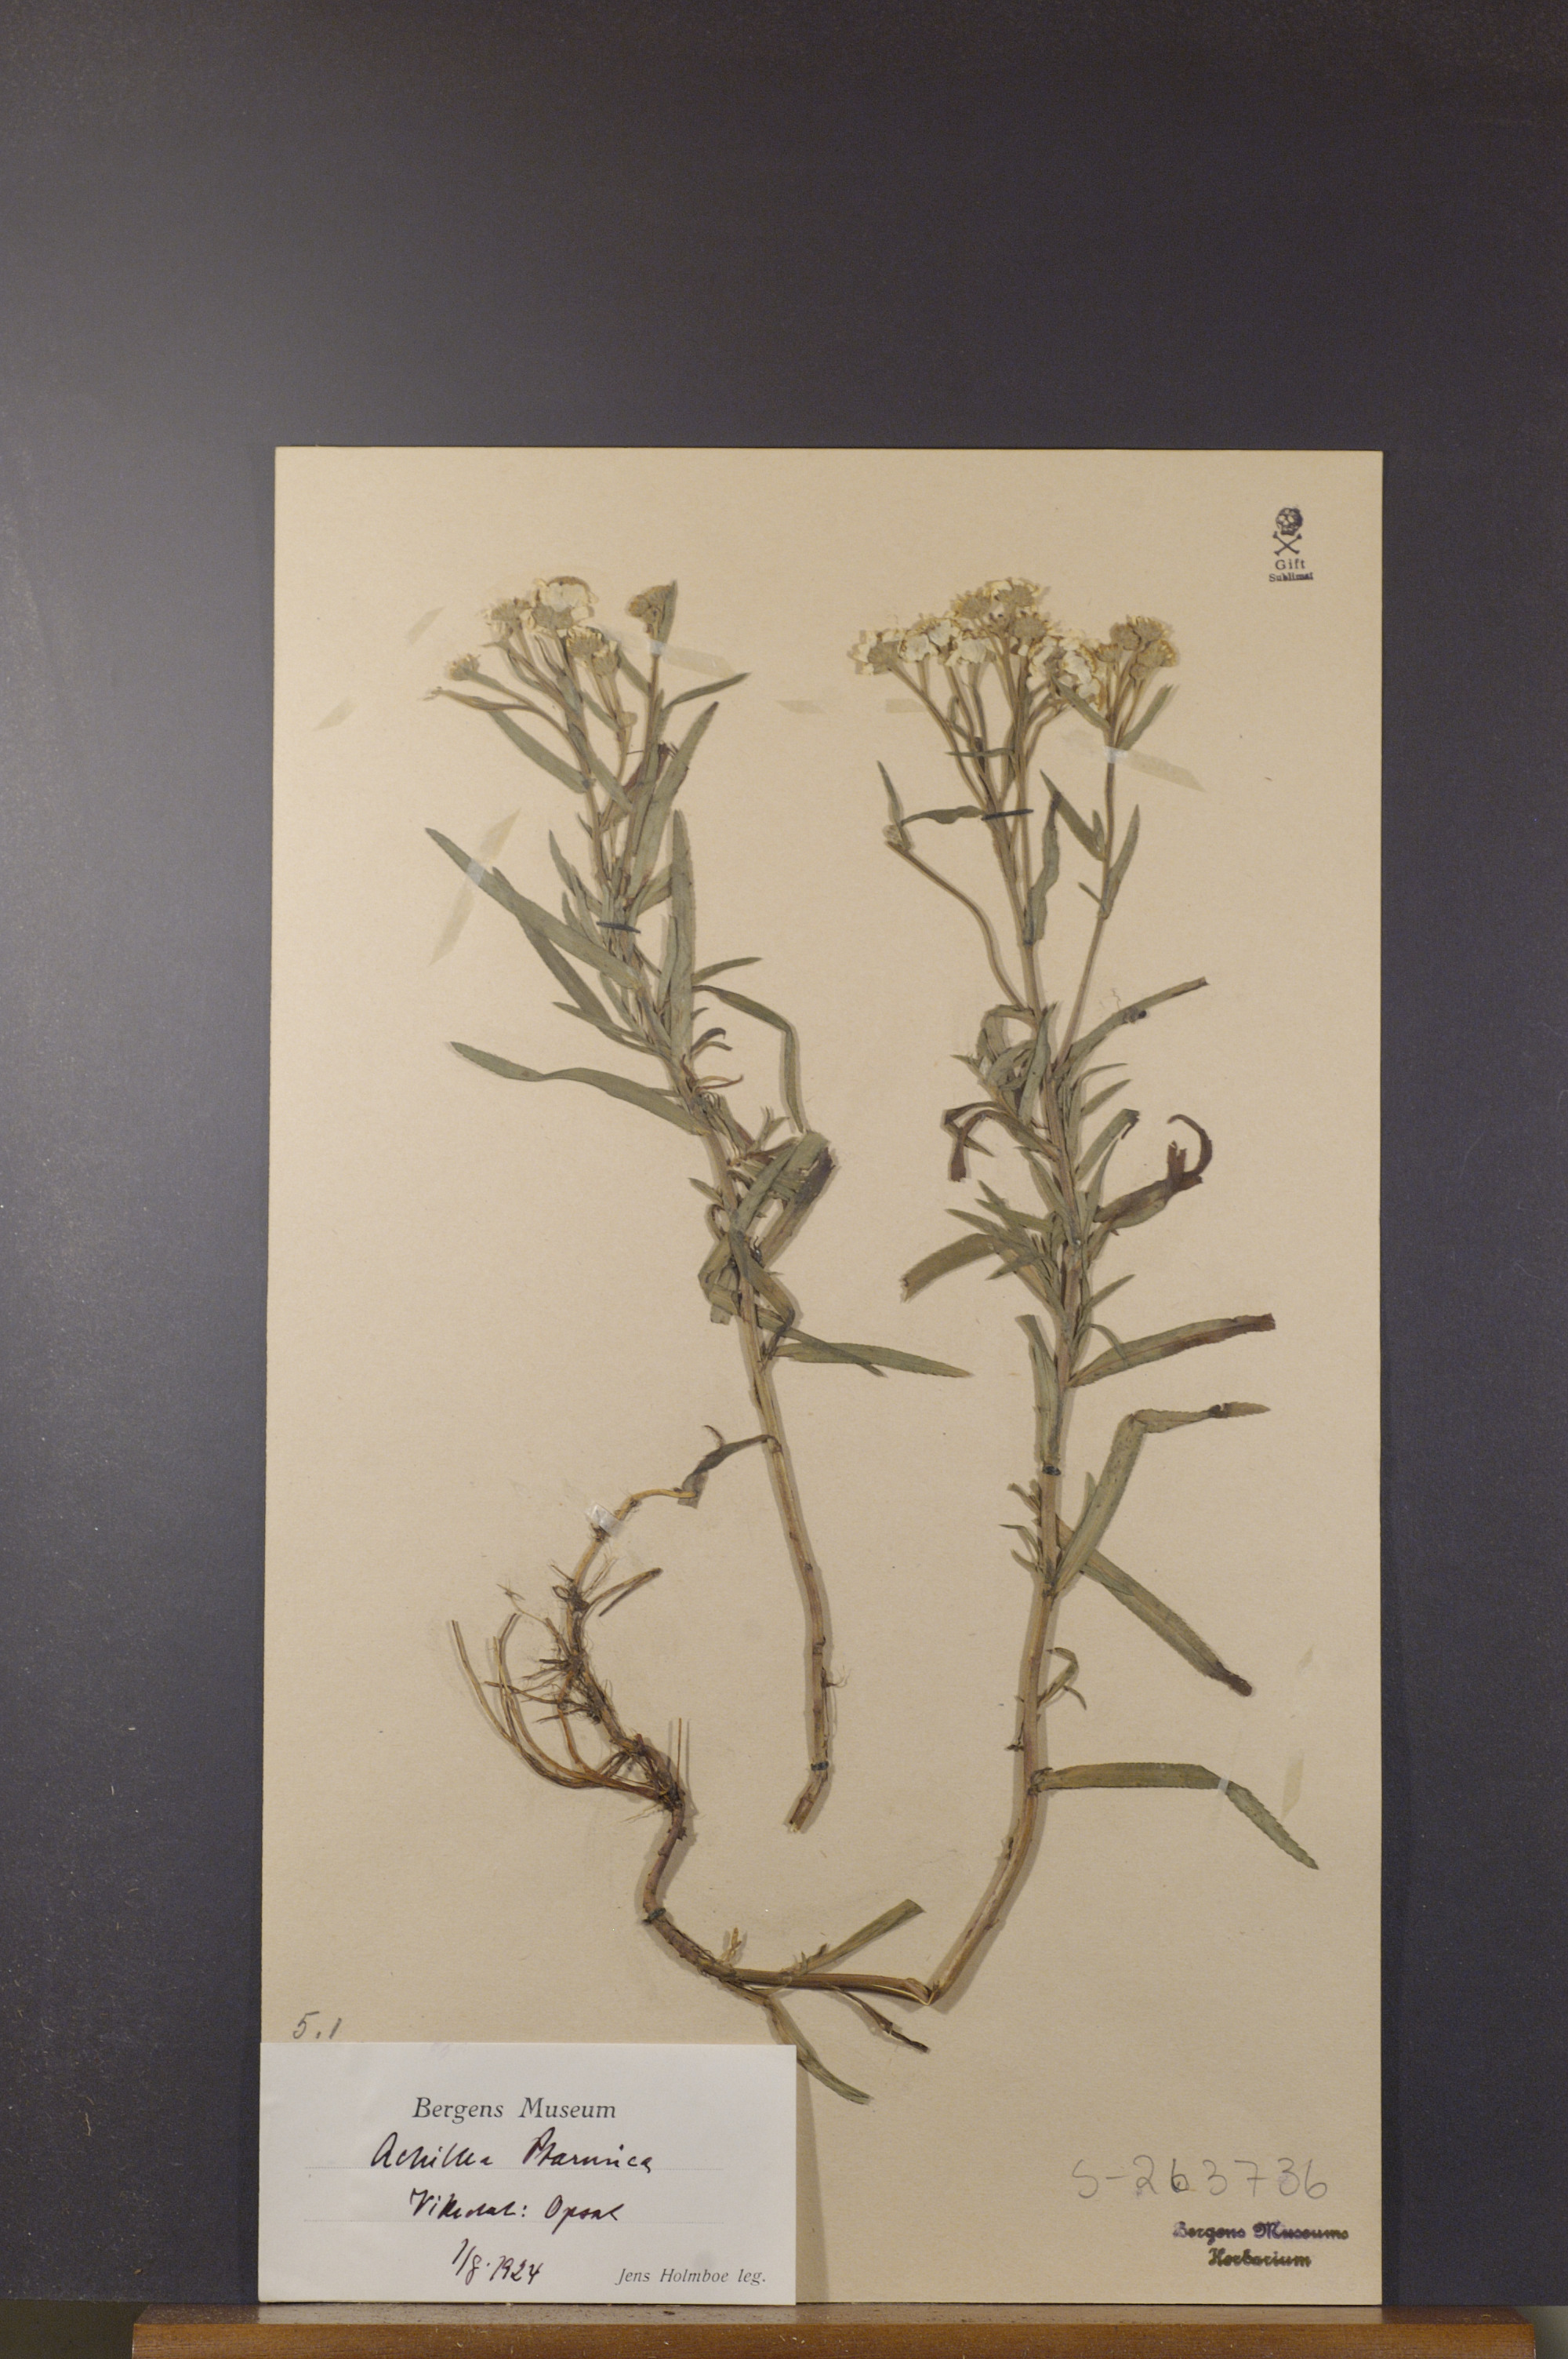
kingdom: Plantae
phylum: Tracheophyta
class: Magnoliopsida
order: Asterales
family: Asteraceae
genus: Achillea
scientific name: Achillea ptarmica
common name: Sneezeweed
